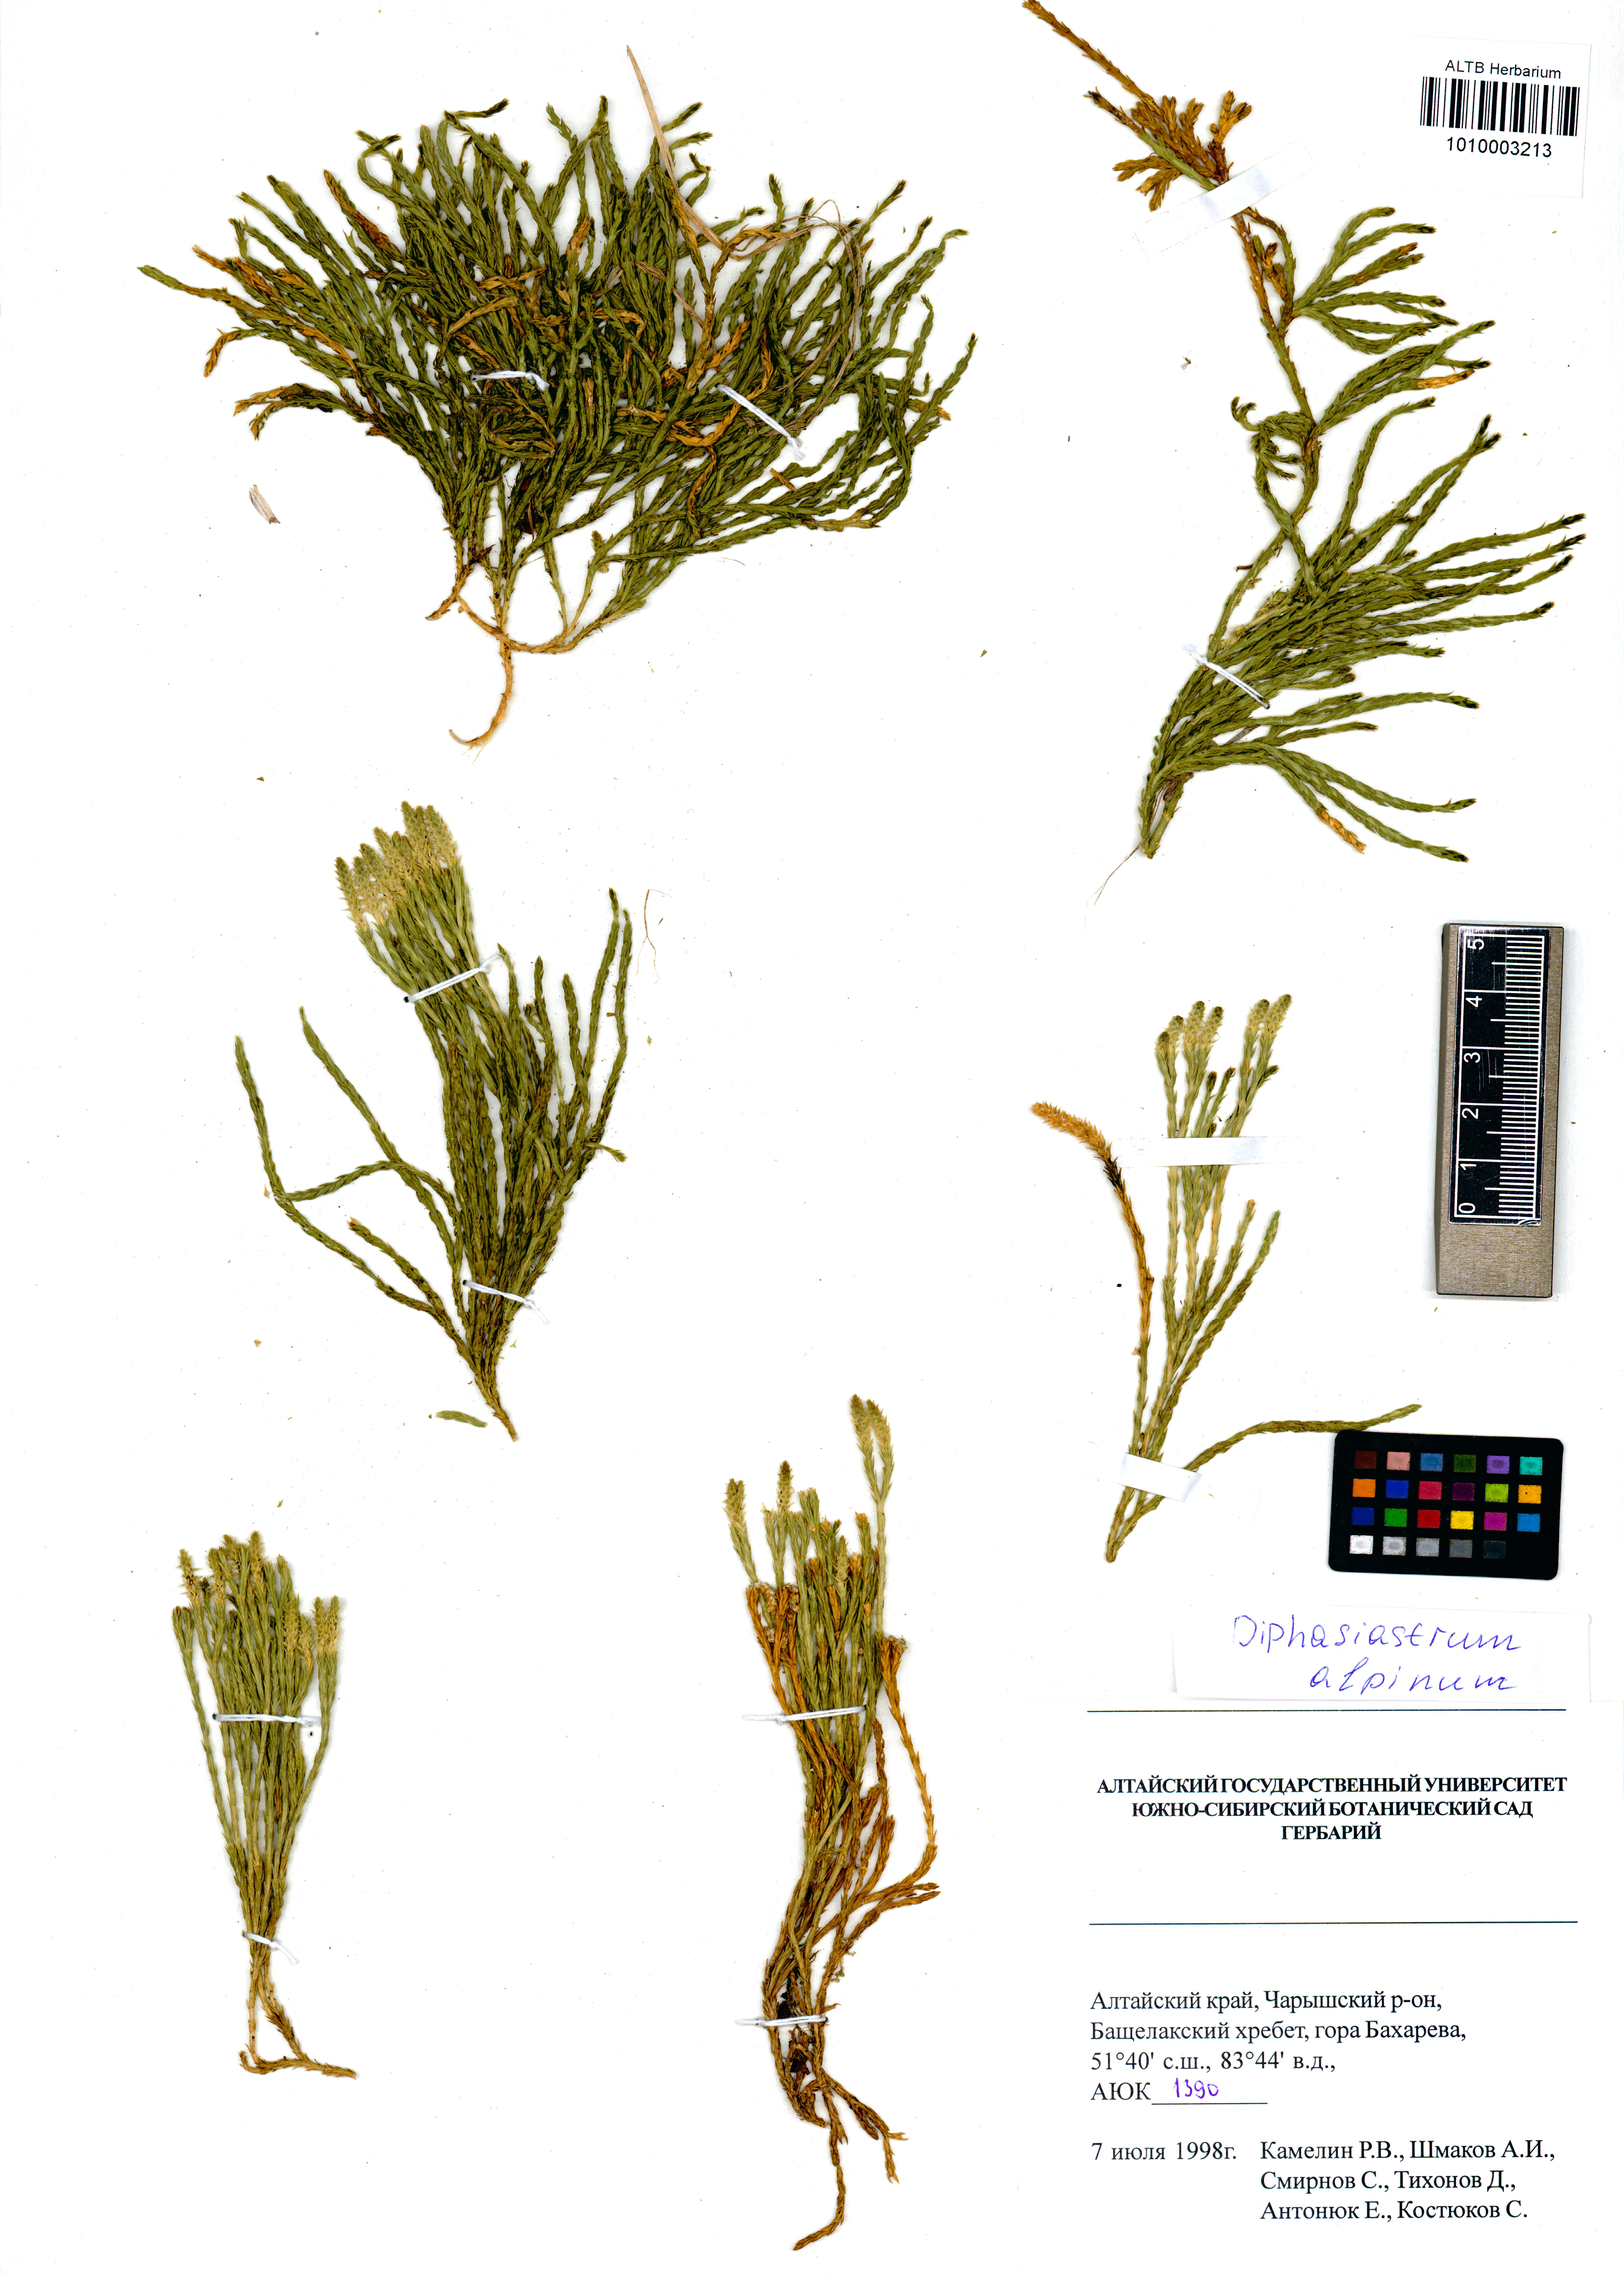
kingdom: Plantae
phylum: Tracheophyta
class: Lycopodiopsida
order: Lycopodiales
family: Lycopodiaceae
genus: Diphasiastrum
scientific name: Diphasiastrum alpinum
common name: Alpine clubmoss
